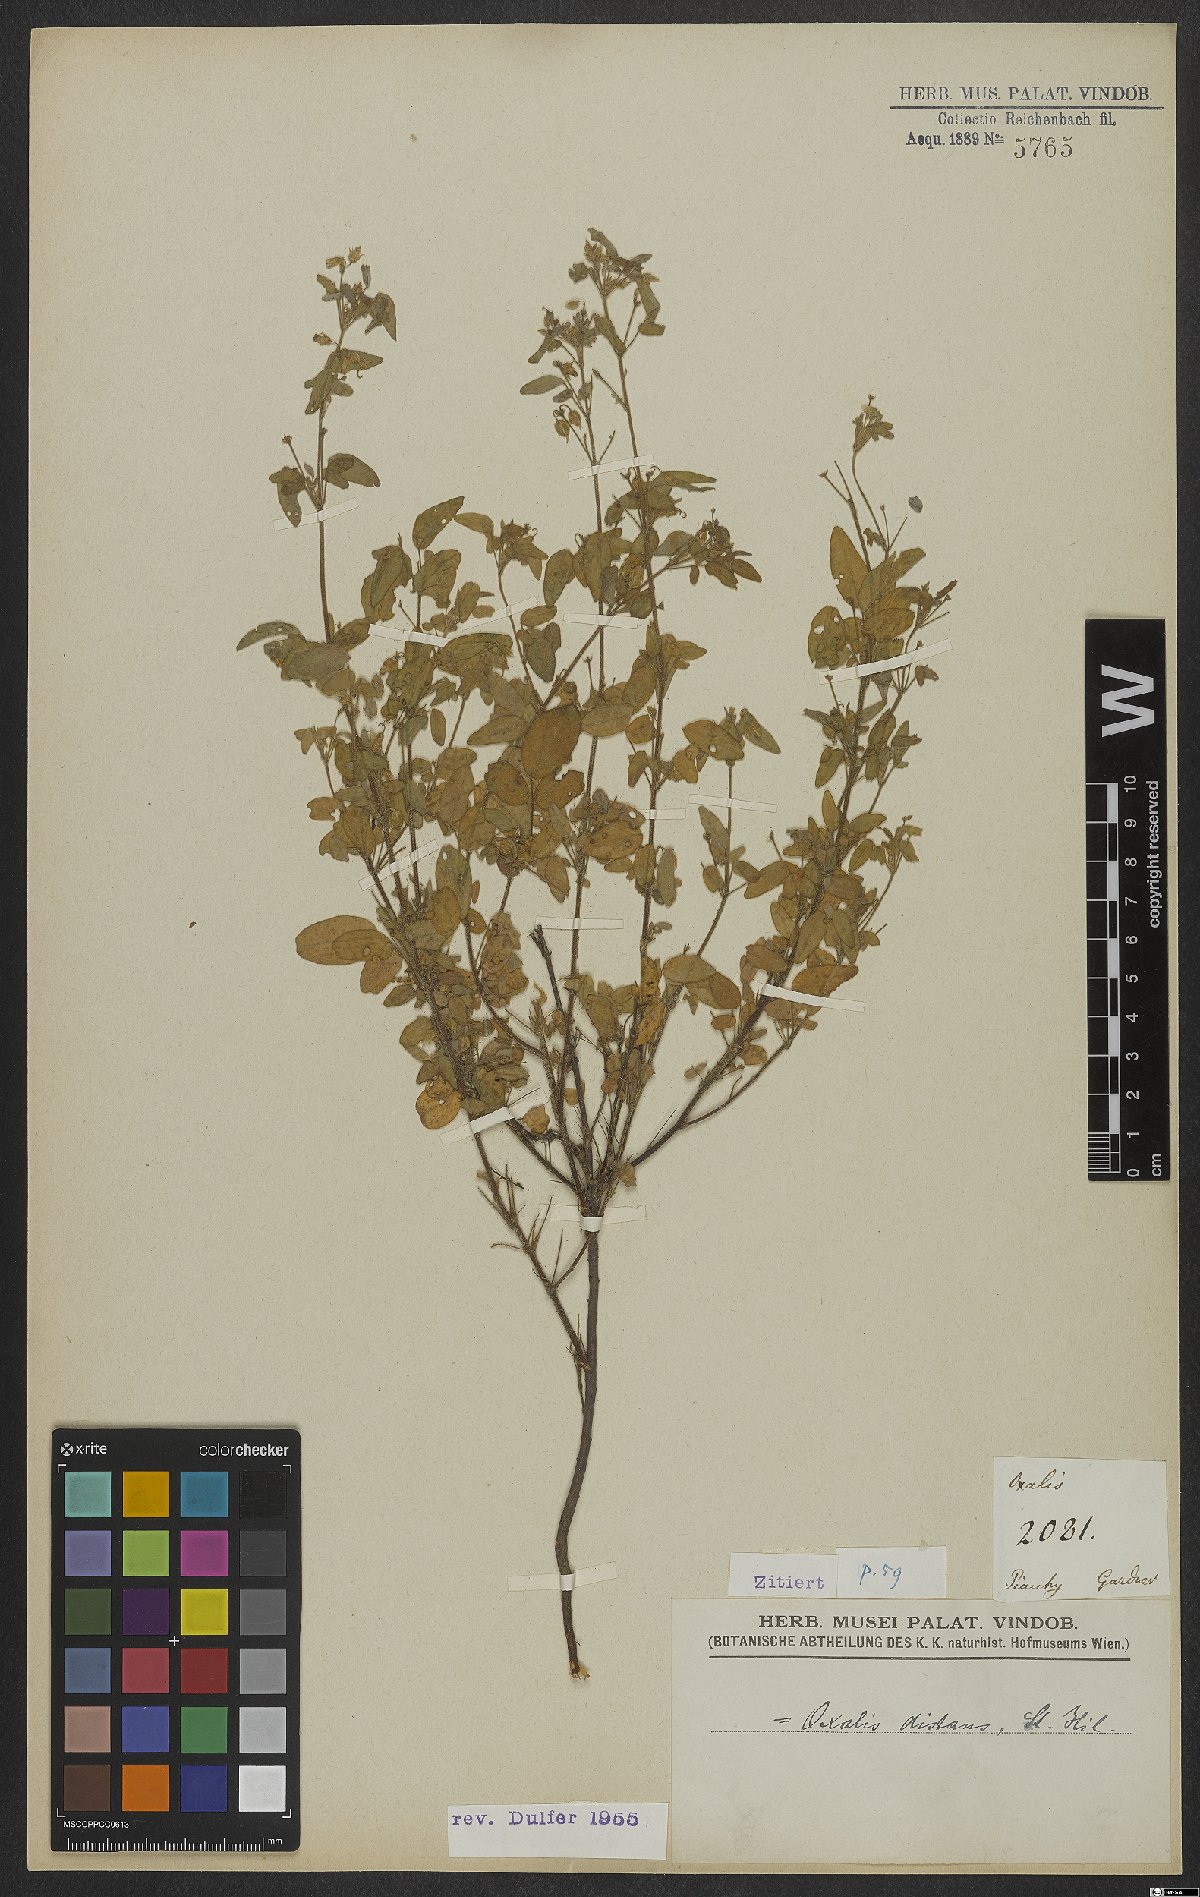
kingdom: Plantae
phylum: Tracheophyta
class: Magnoliopsida
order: Oxalidales
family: Oxalidaceae
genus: Oxalis
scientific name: Oxalis frutescens
